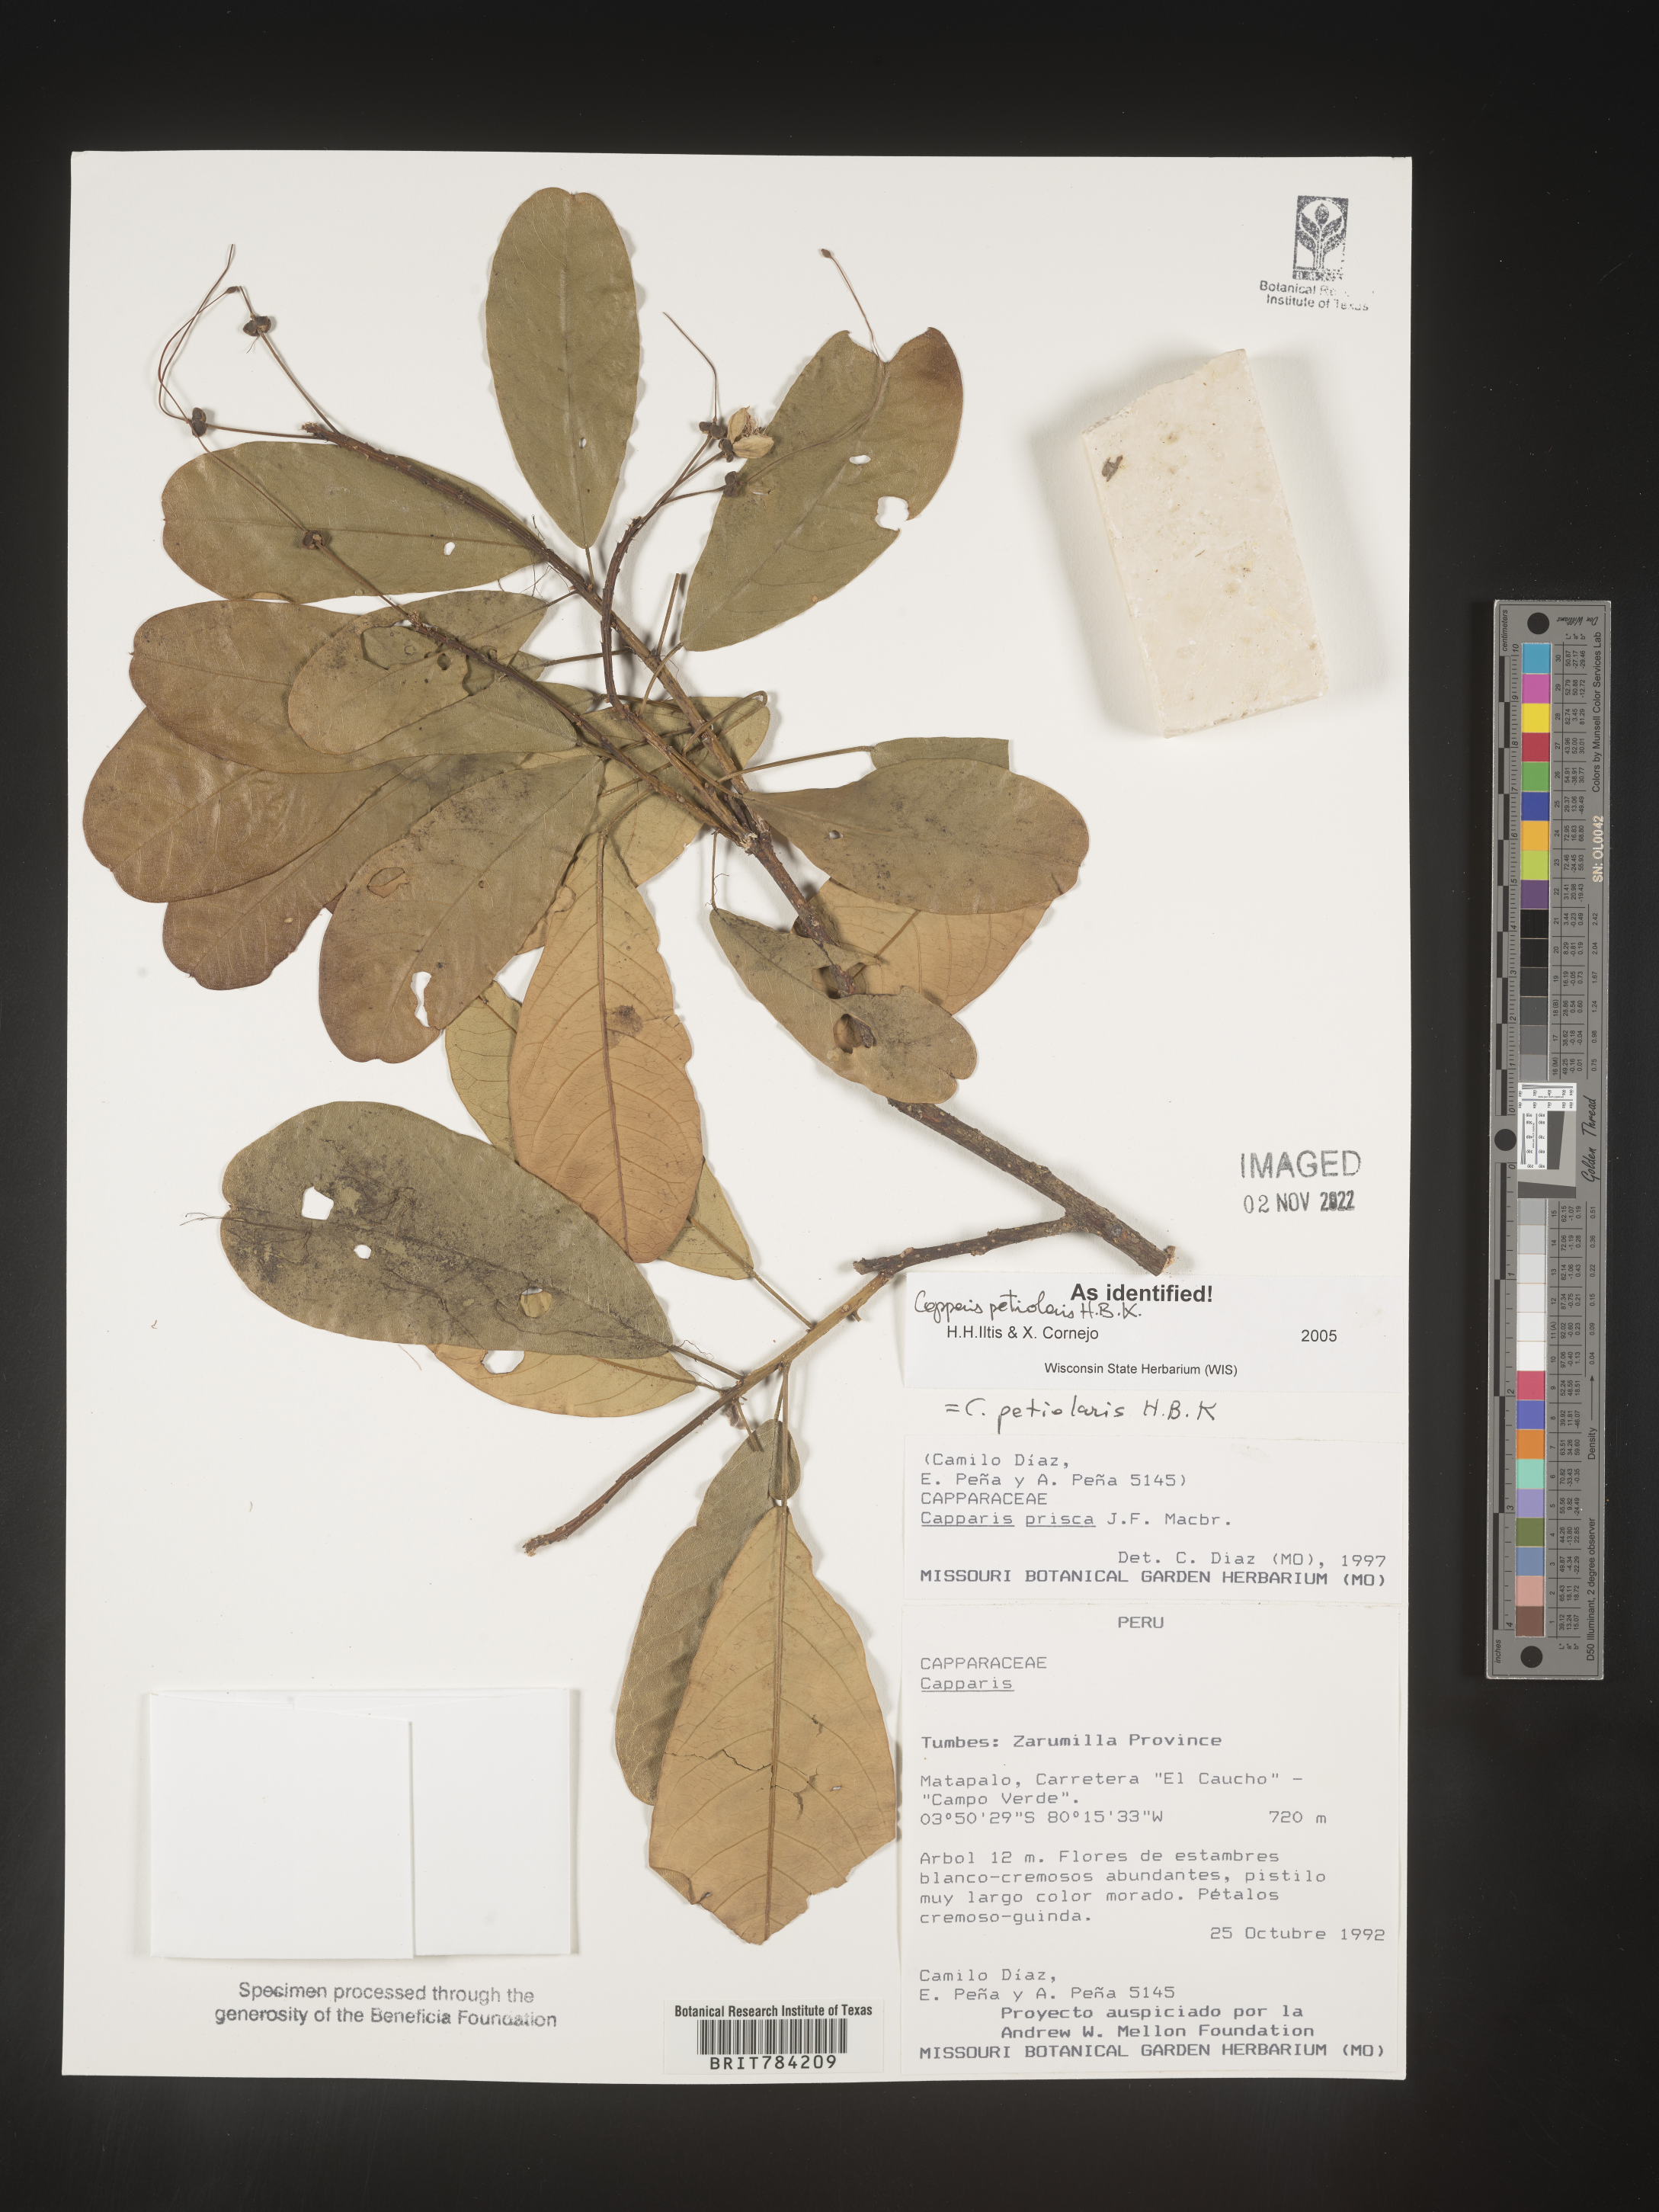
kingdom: Plantae
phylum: Tracheophyta
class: Magnoliopsida
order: Brassicales
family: Capparaceae
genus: Capparis
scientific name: Capparis
